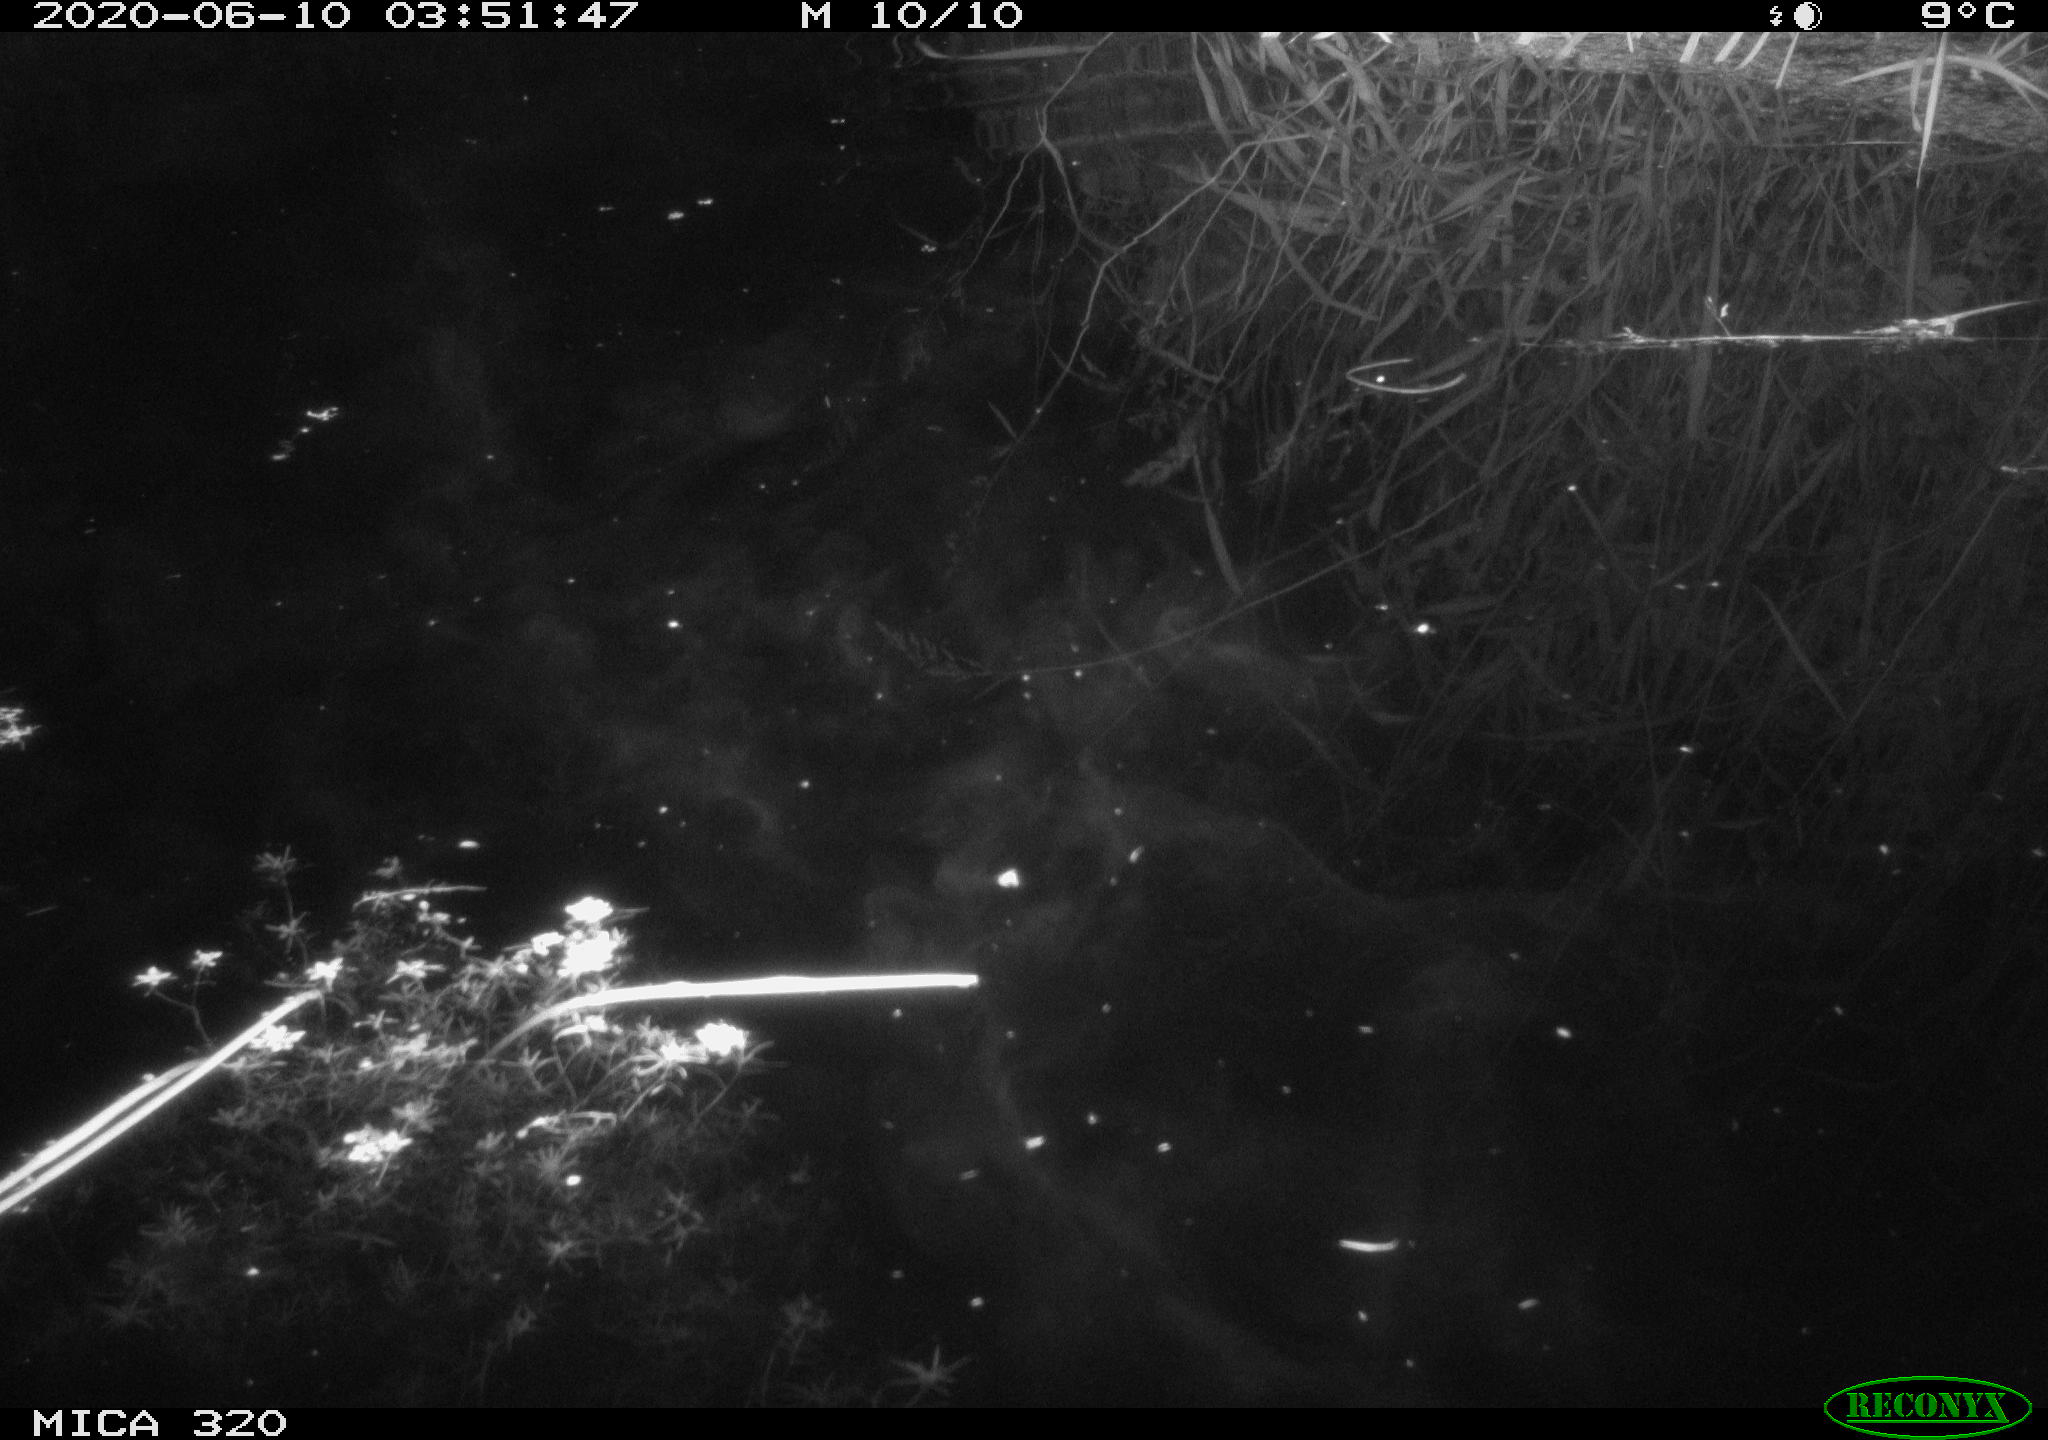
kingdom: Animalia
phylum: Chordata
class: Aves
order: Anseriformes
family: Anatidae
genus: Anas
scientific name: Anas platyrhynchos
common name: Mallard
